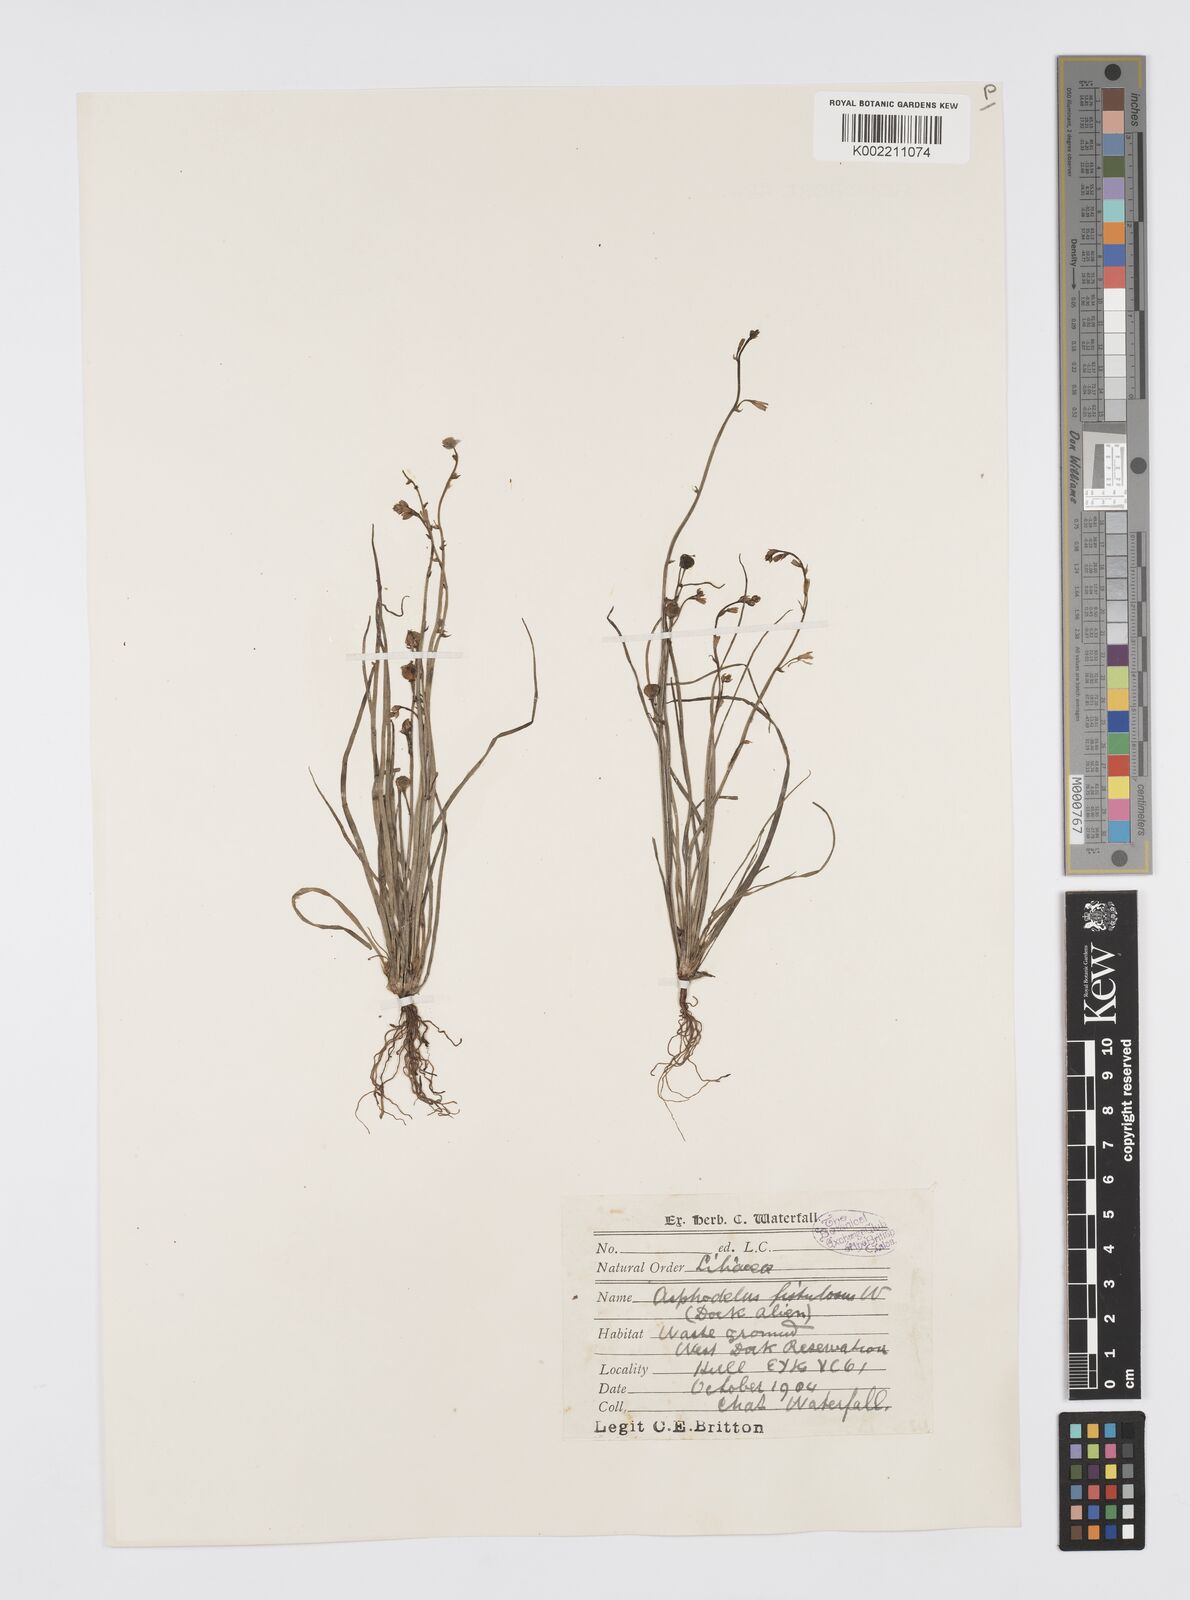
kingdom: Plantae
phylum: Tracheophyta
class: Liliopsida
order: Asparagales
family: Asphodelaceae
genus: Asphodelus
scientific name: Asphodelus tenuifolius
